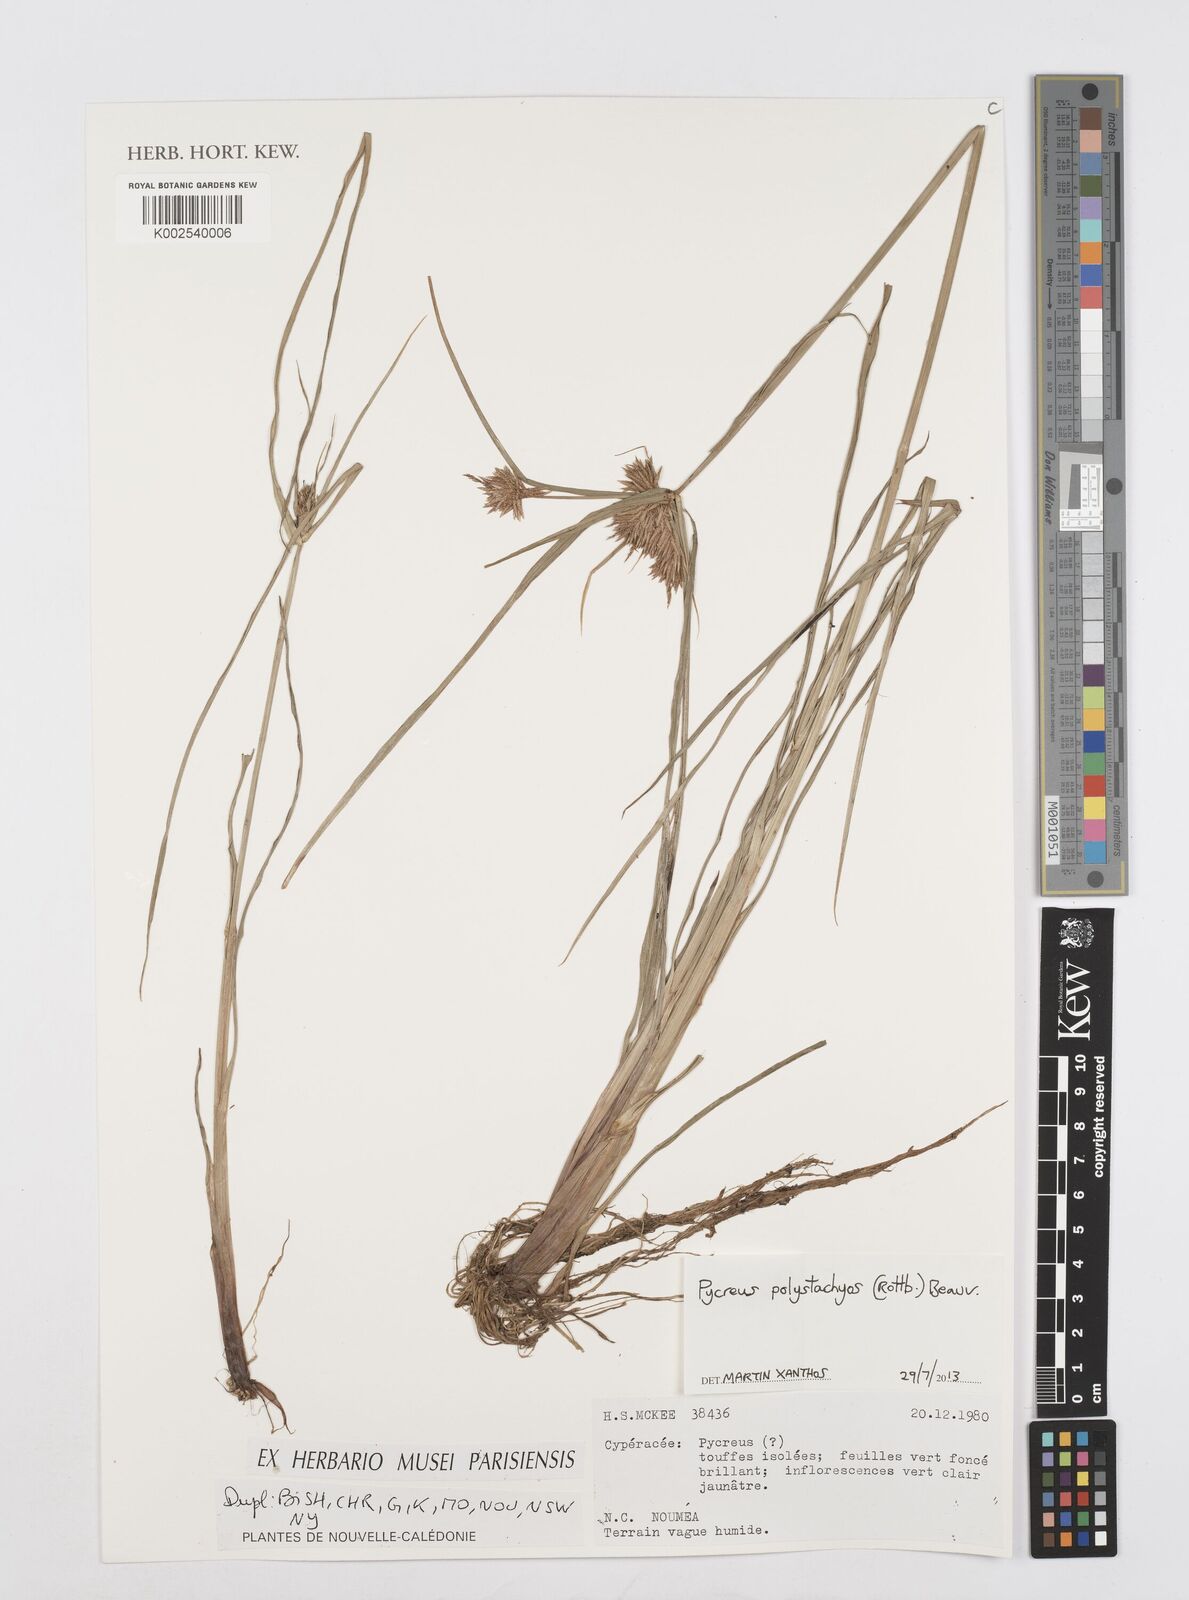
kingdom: Plantae
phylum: Tracheophyta
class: Liliopsida
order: Poales
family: Cyperaceae
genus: Cyperus
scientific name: Cyperus polystachyos
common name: Bunchy flat sedge
